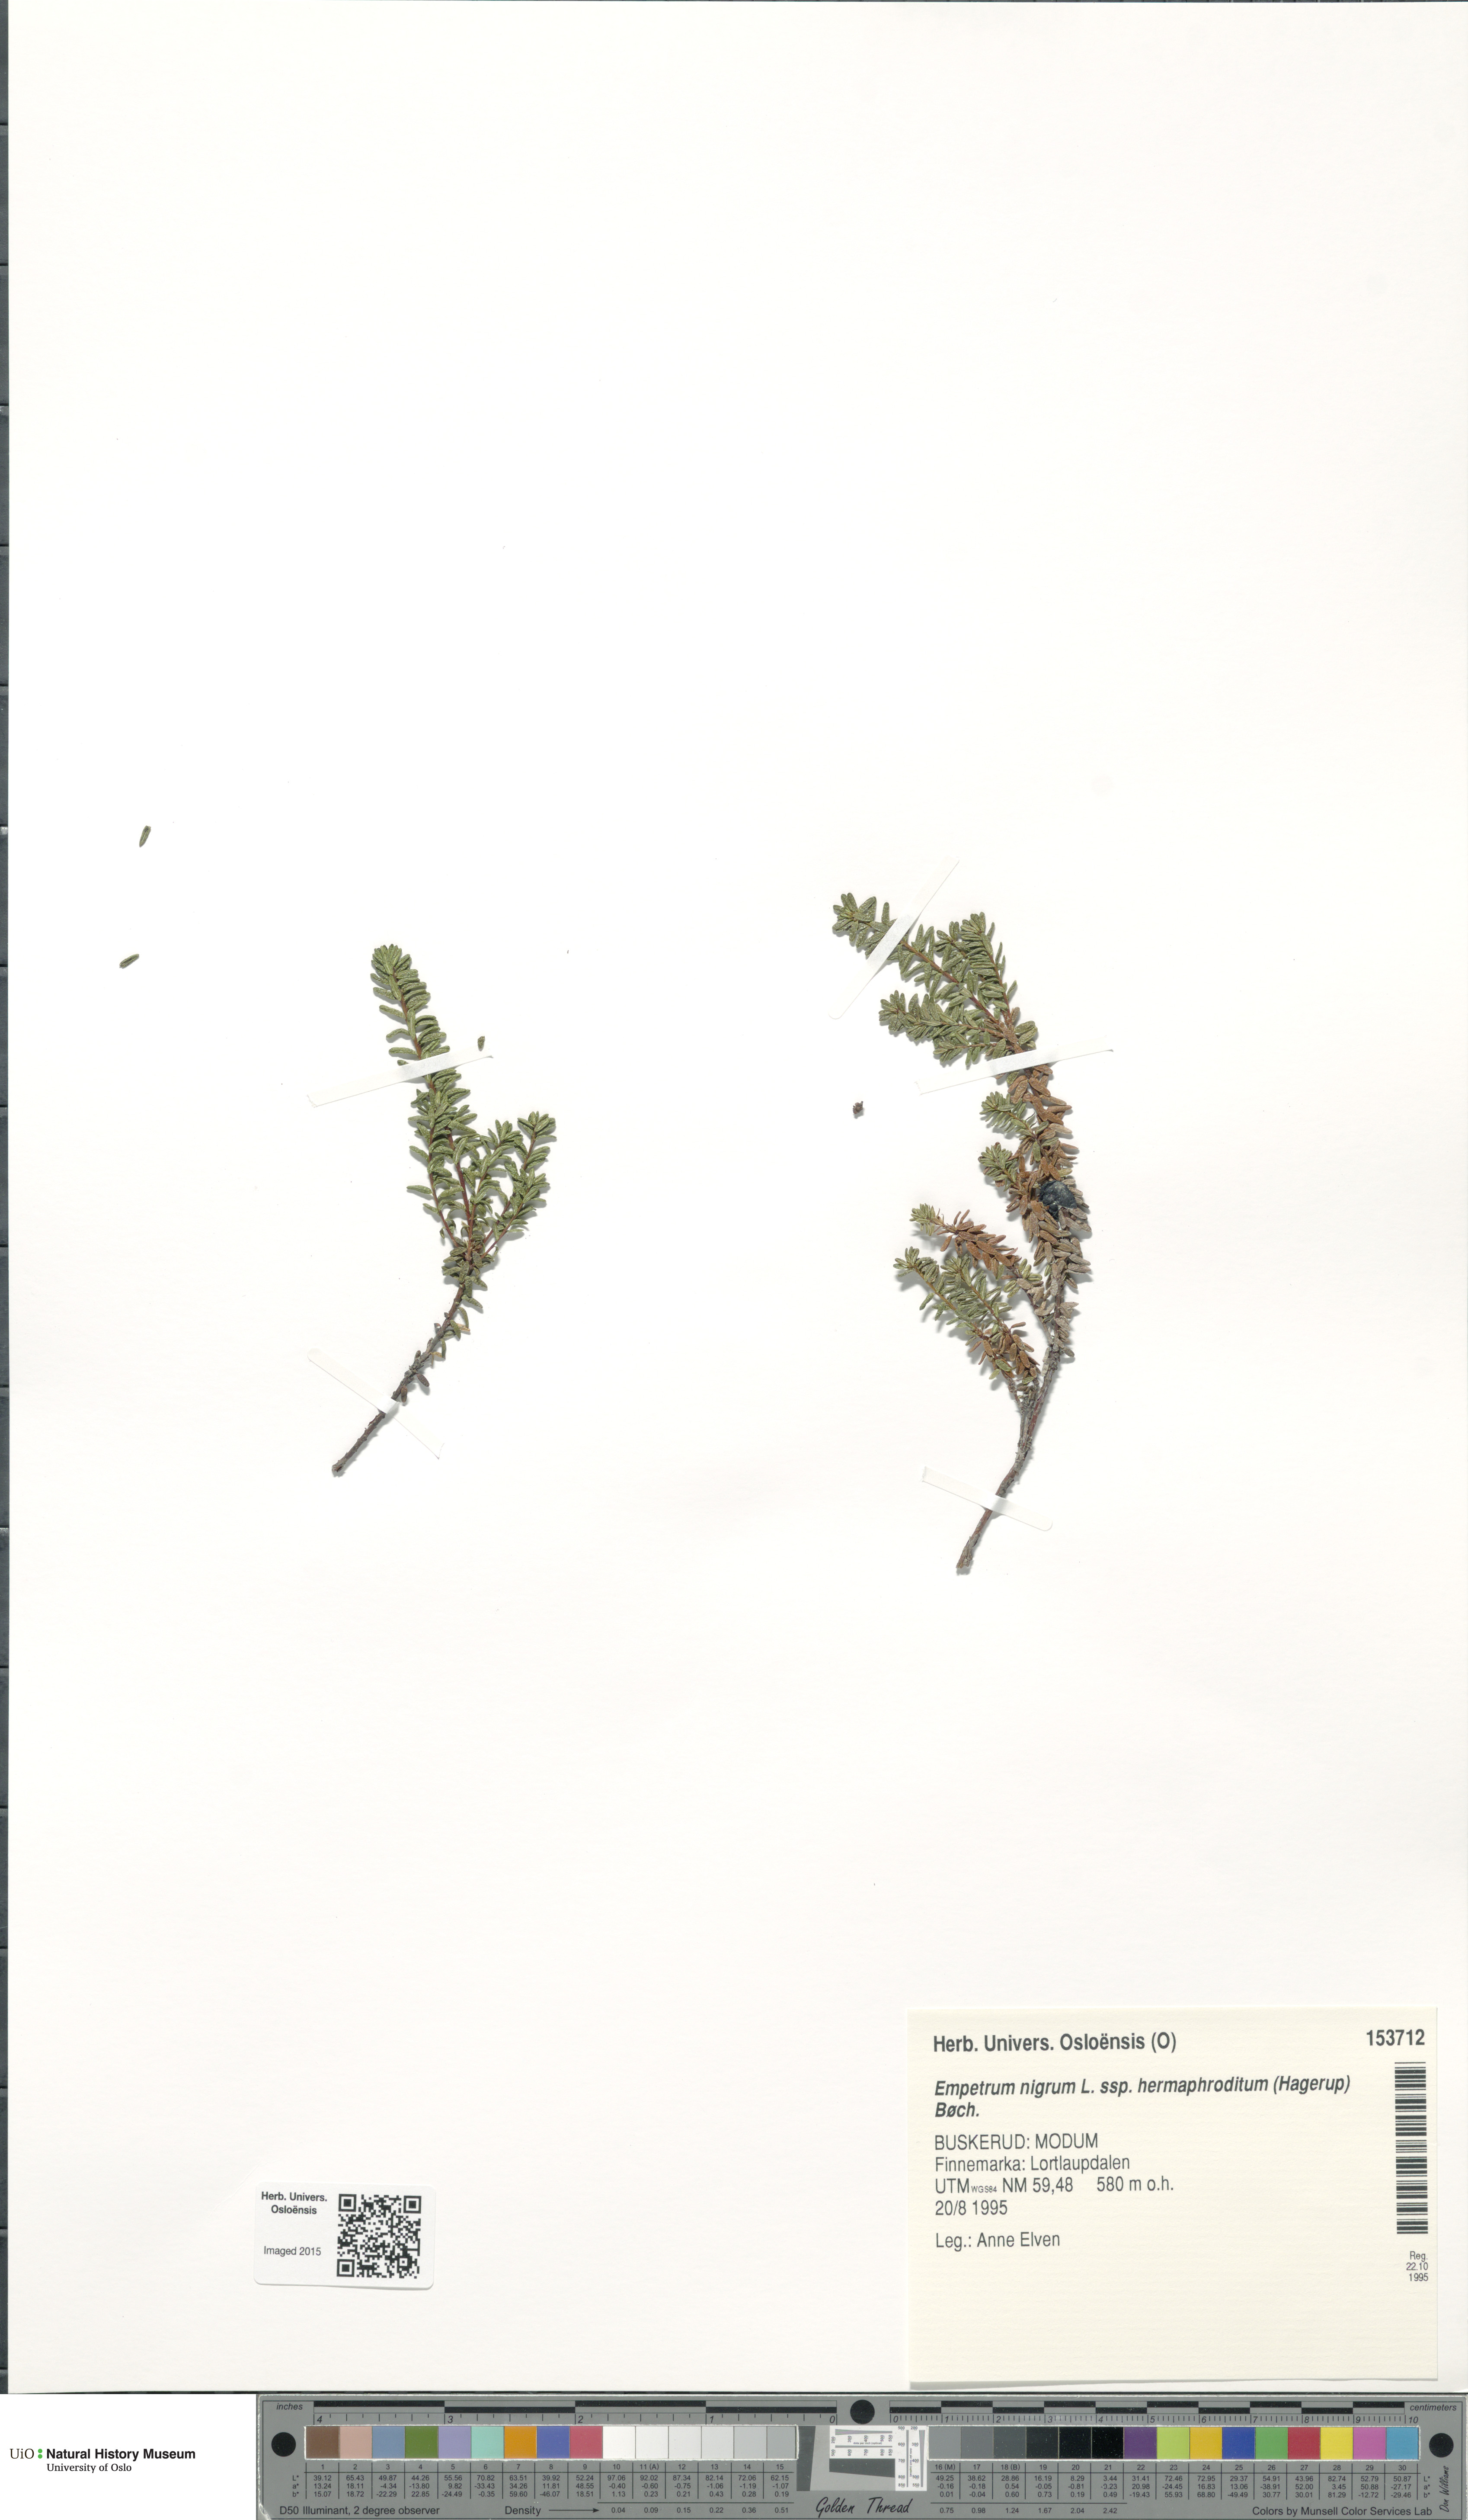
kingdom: Plantae
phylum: Tracheophyta
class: Magnoliopsida
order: Ericales
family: Ericaceae
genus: Empetrum
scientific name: Empetrum hermaphroditum
